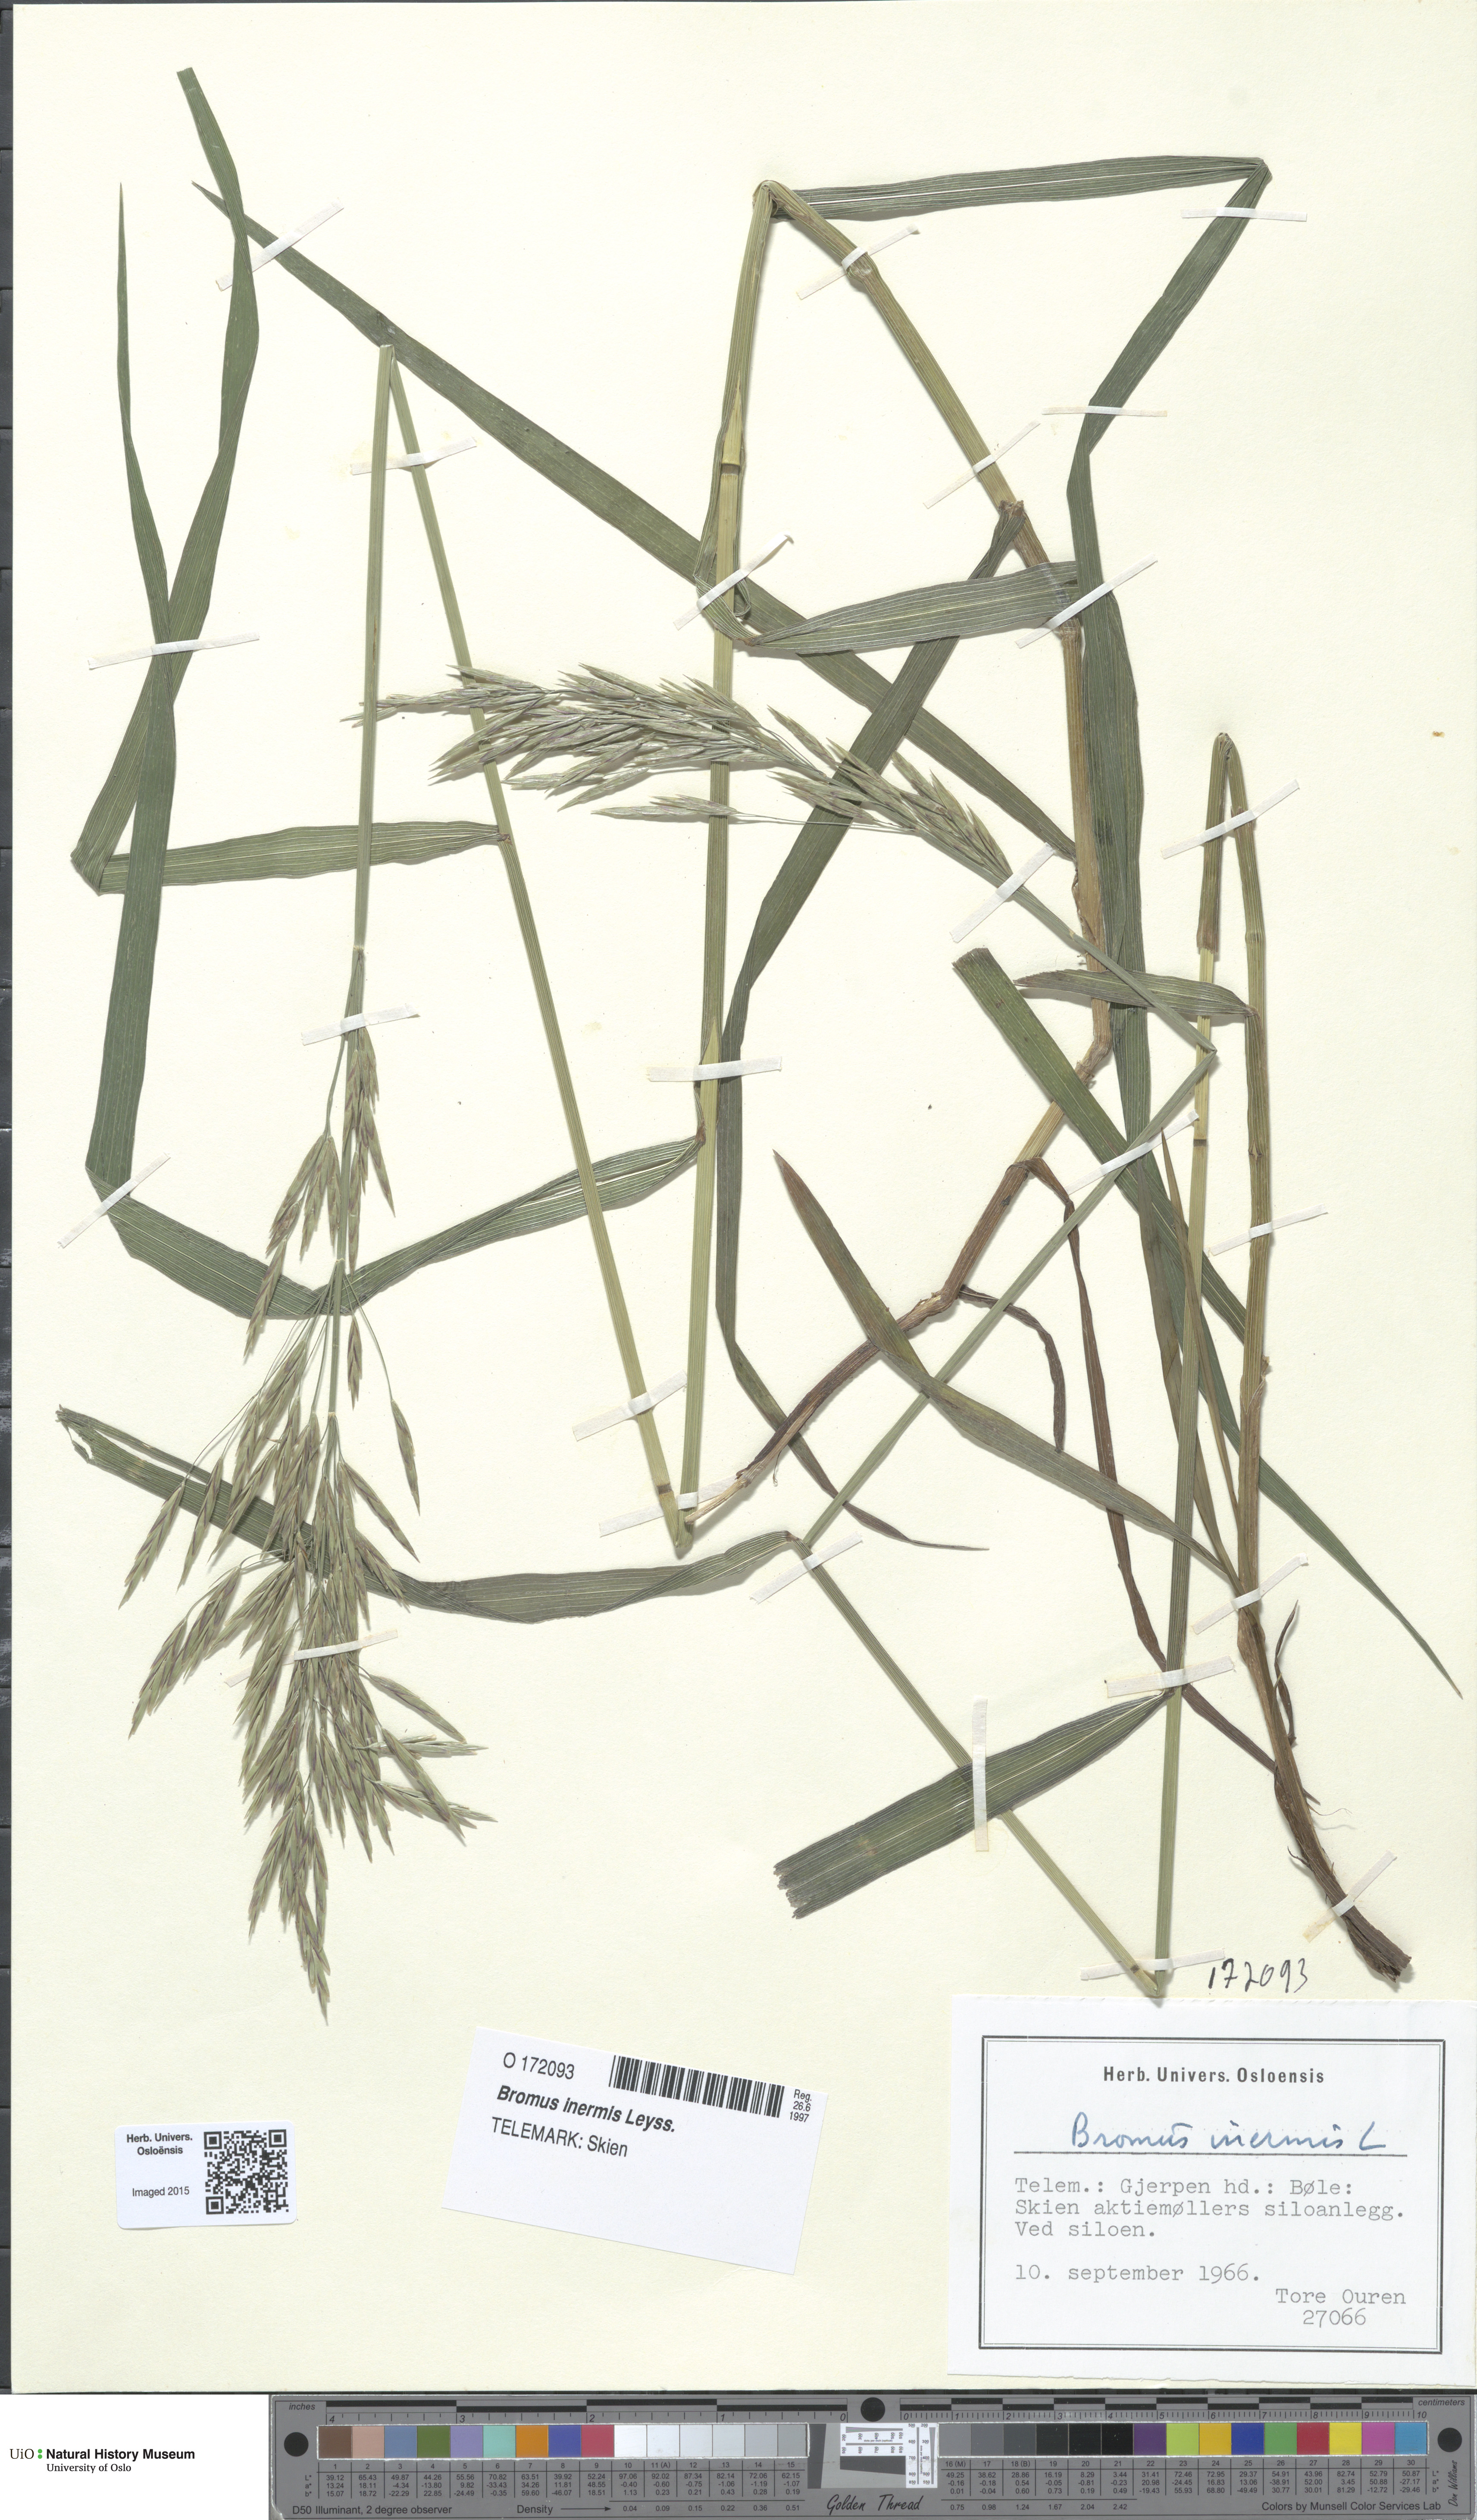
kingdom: Plantae
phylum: Tracheophyta
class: Liliopsida
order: Poales
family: Poaceae
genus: Bromus
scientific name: Bromus inermis
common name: Smooth brome
